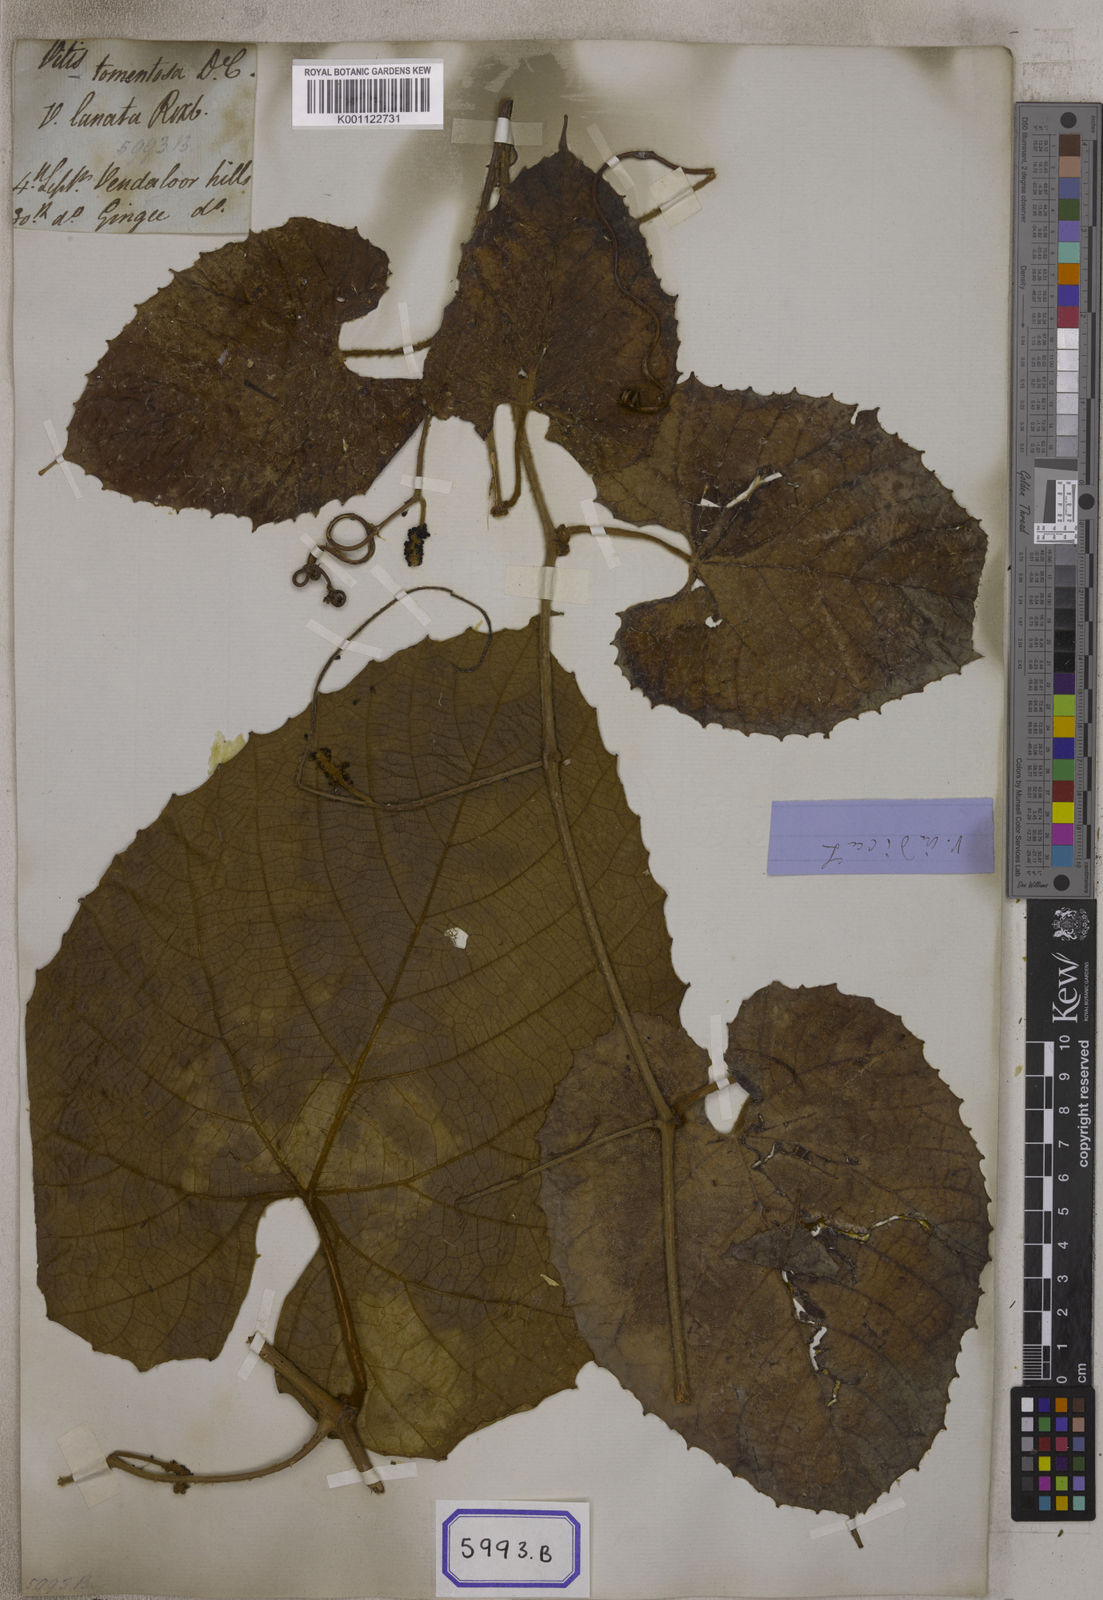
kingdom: Plantae
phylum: Tracheophyta
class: Magnoliopsida
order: Vitales
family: Vitaceae
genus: Ampelocissus
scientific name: Ampelocissus indica
